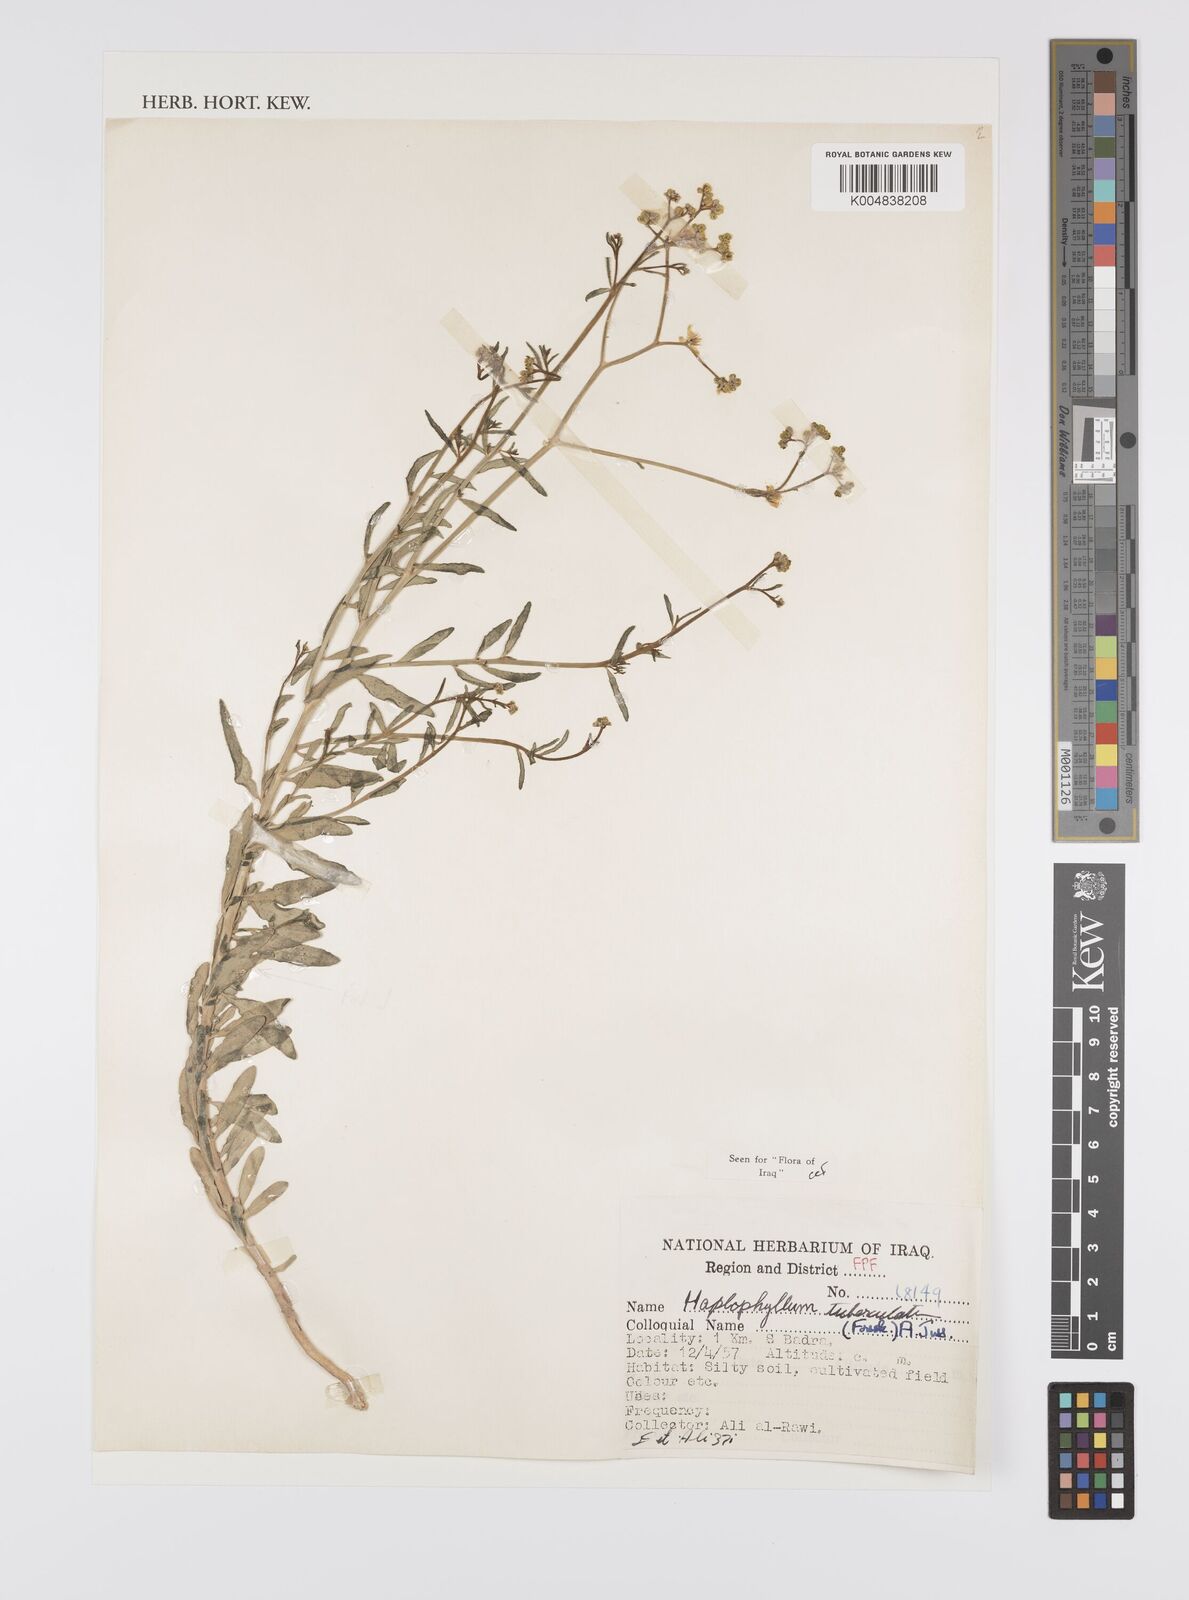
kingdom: Plantae
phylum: Tracheophyta
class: Magnoliopsida
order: Sapindales
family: Rutaceae
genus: Haplophyllum
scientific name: Haplophyllum tuberculatum
